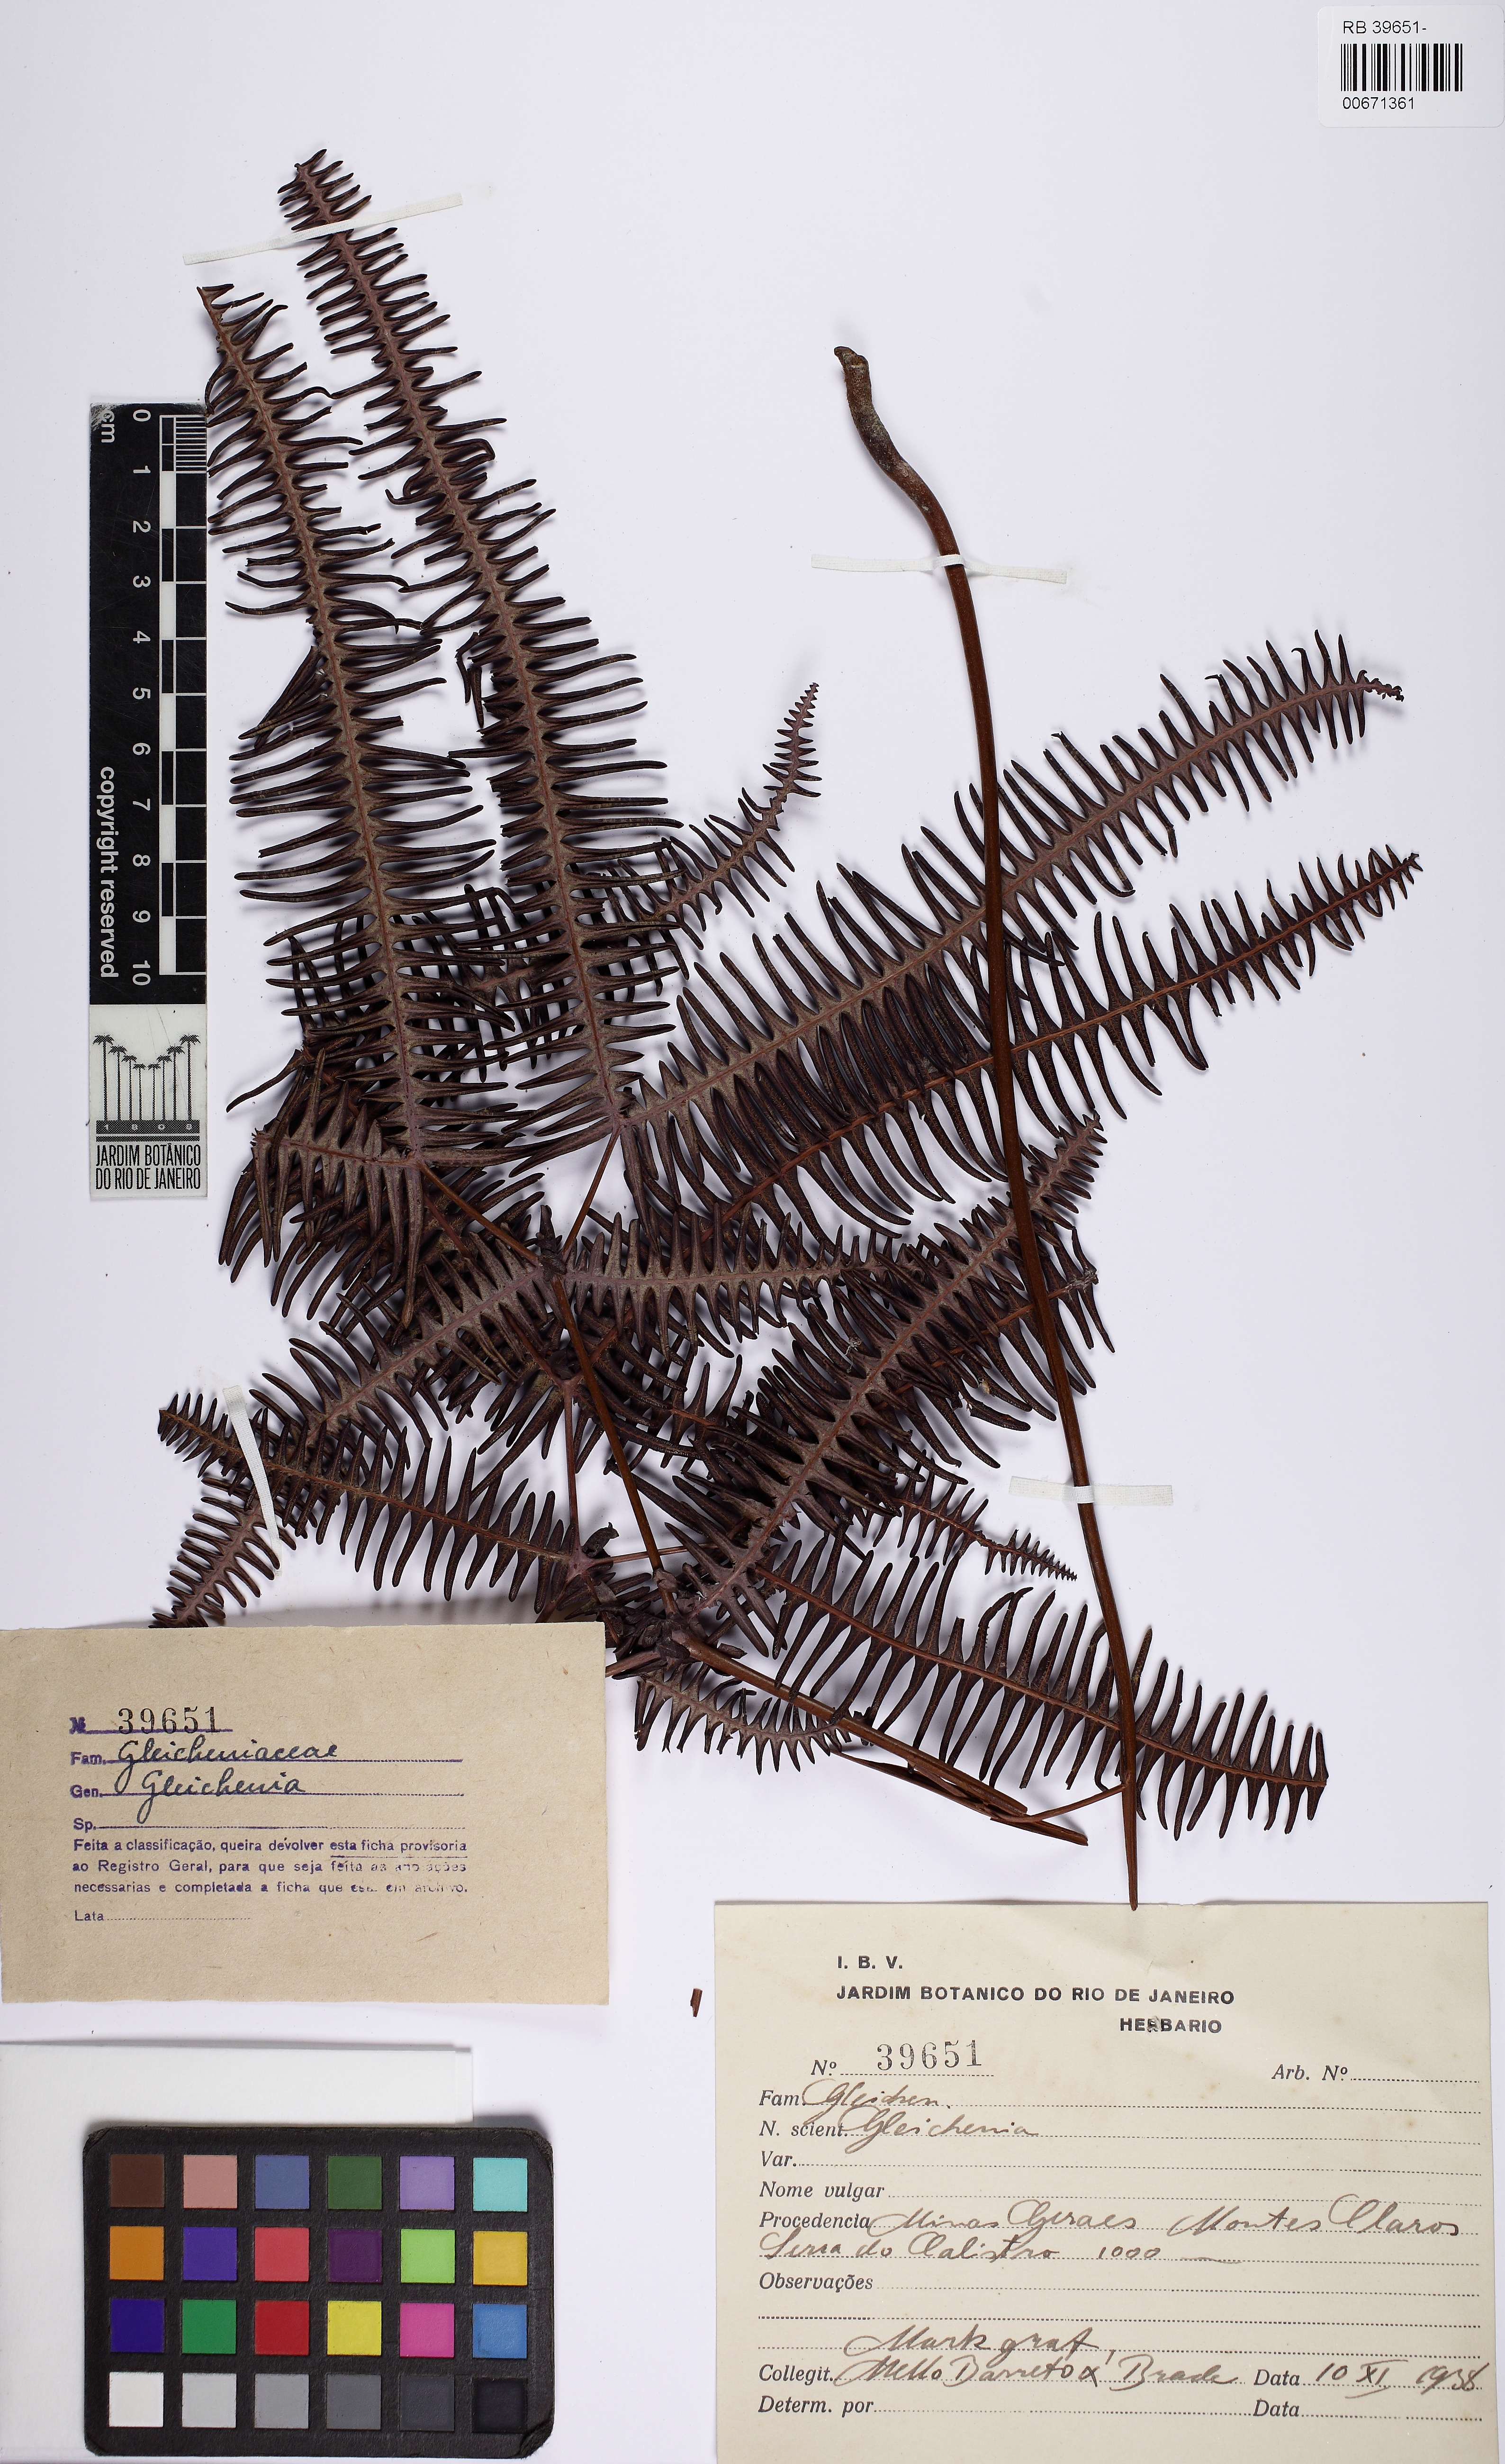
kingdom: Plantae
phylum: Tracheophyta
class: Polypodiopsida
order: Gleicheniales
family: Gleicheniaceae
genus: Dicranopteris
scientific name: Dicranopteris flexuosa
